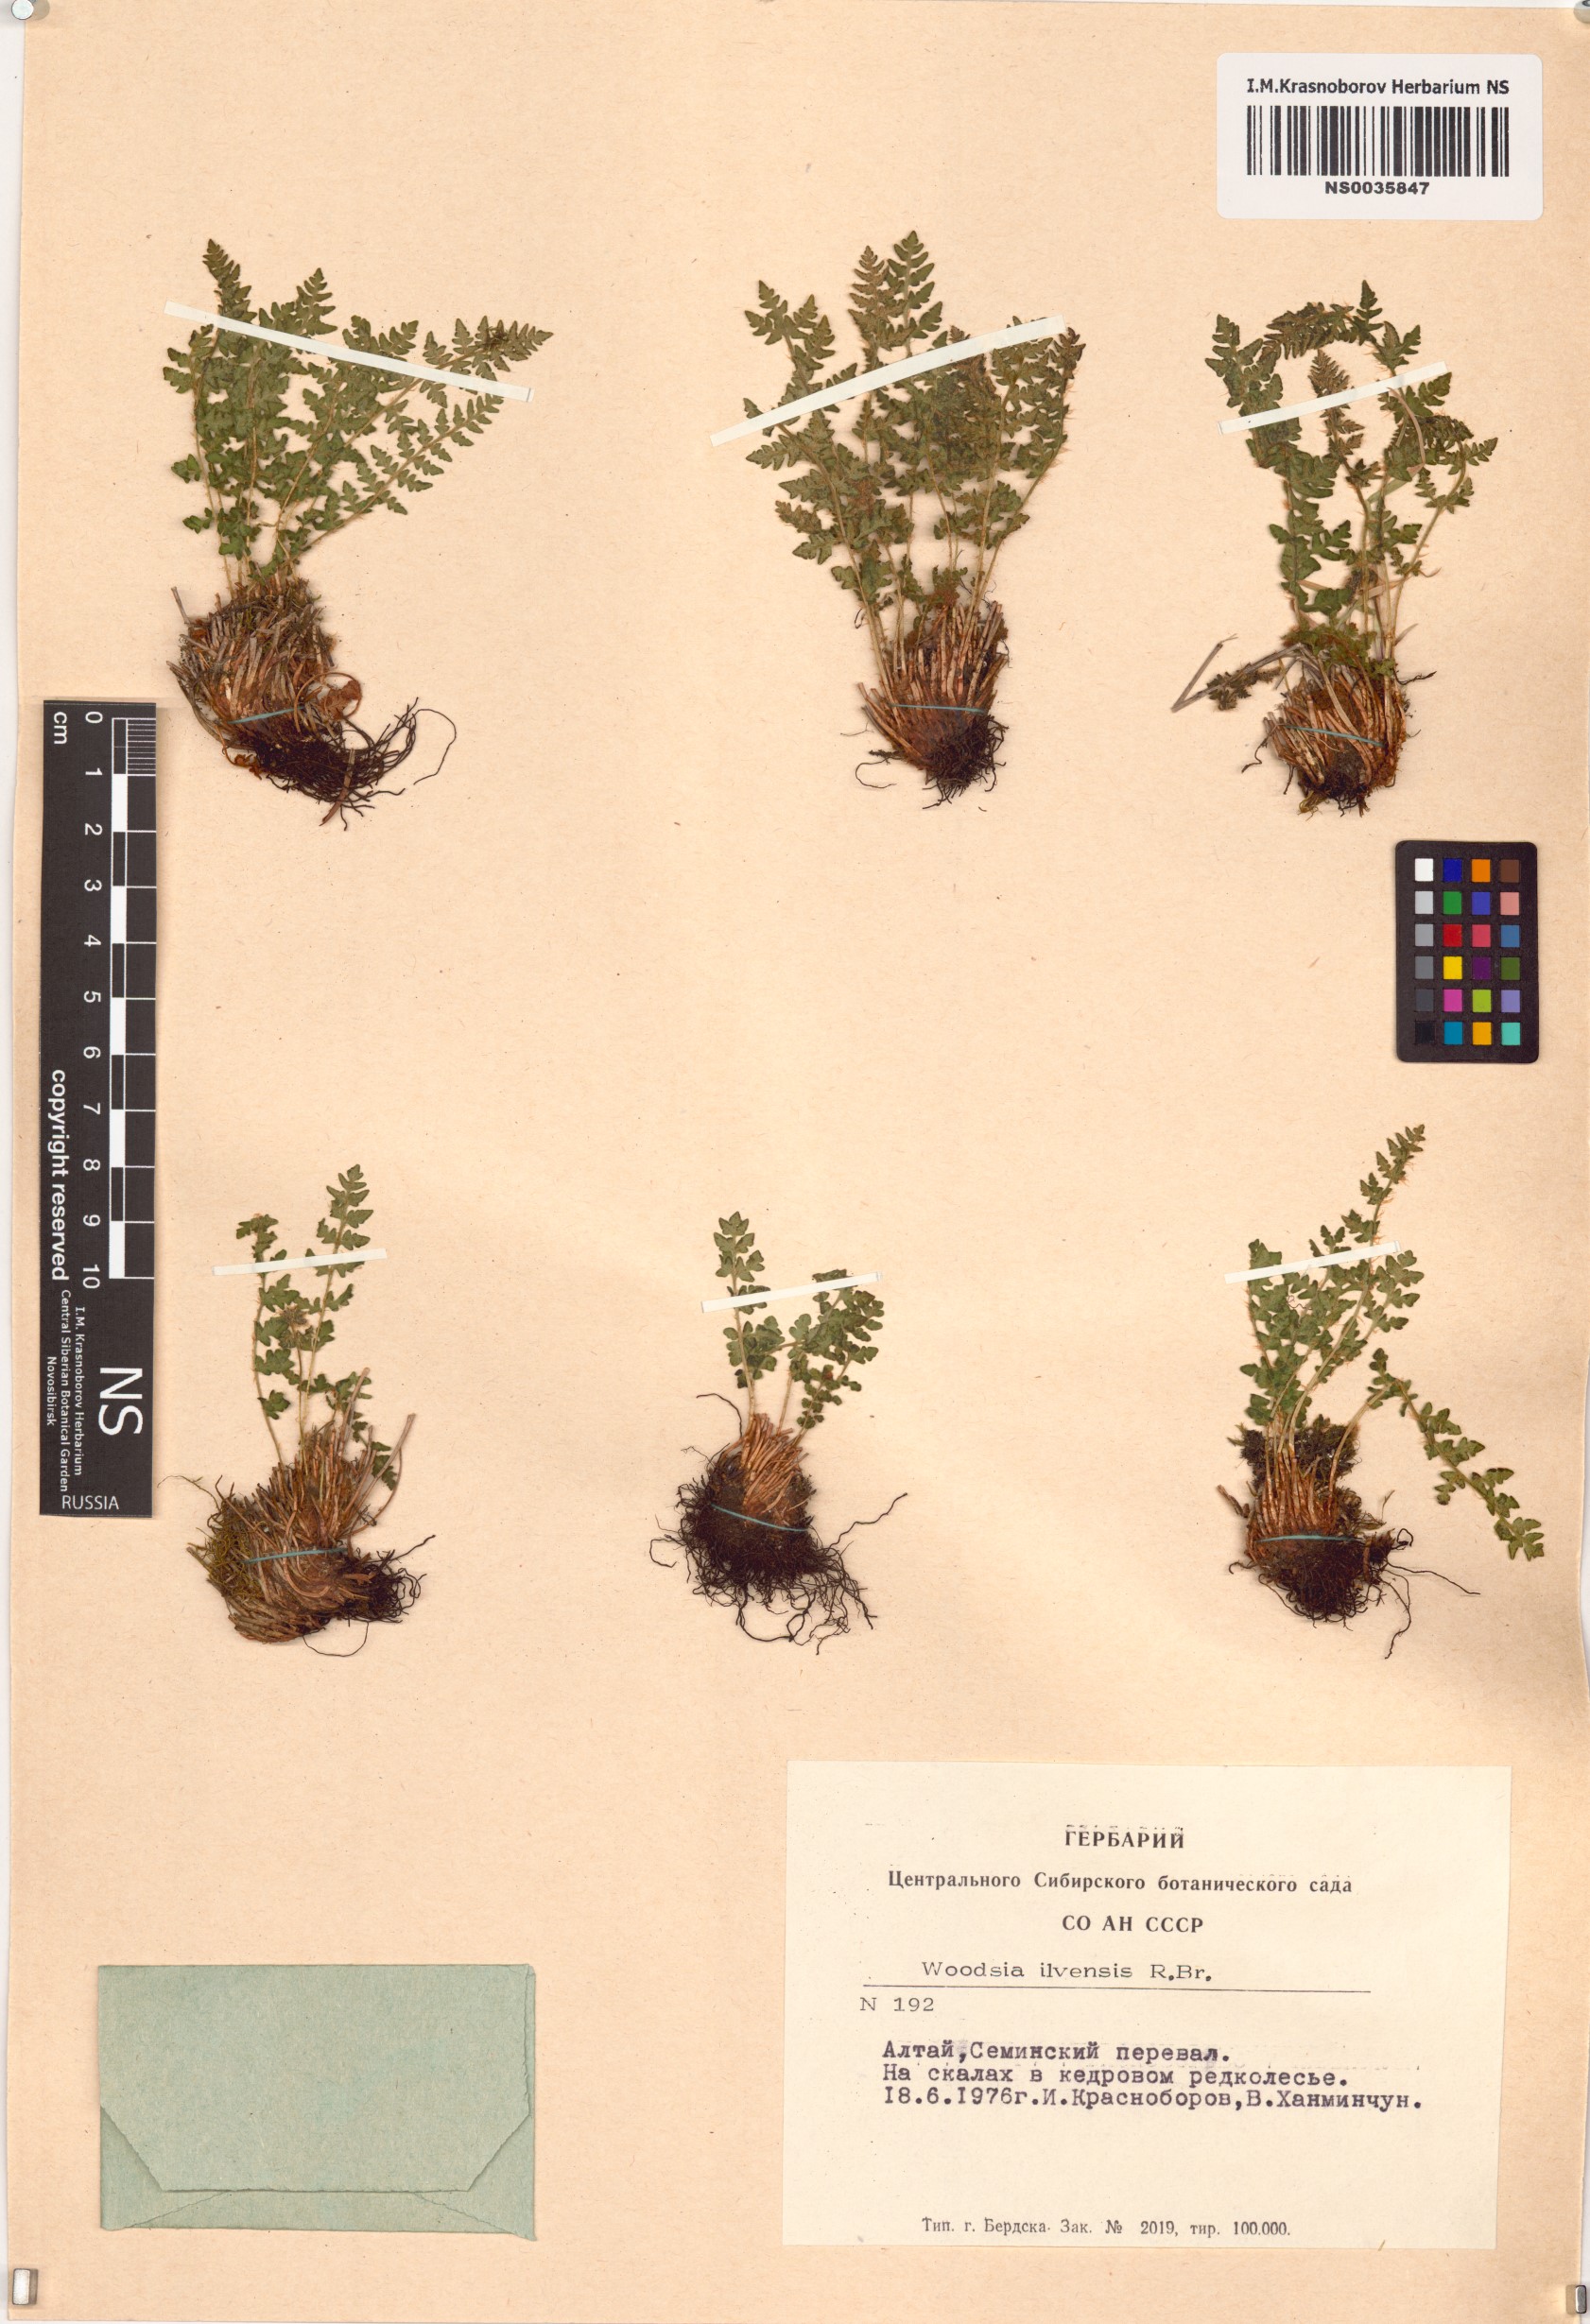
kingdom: Plantae
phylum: Tracheophyta
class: Polypodiopsida
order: Polypodiales
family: Woodsiaceae
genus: Woodsia
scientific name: Woodsia ilvensis
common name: Fragrant woodsia
